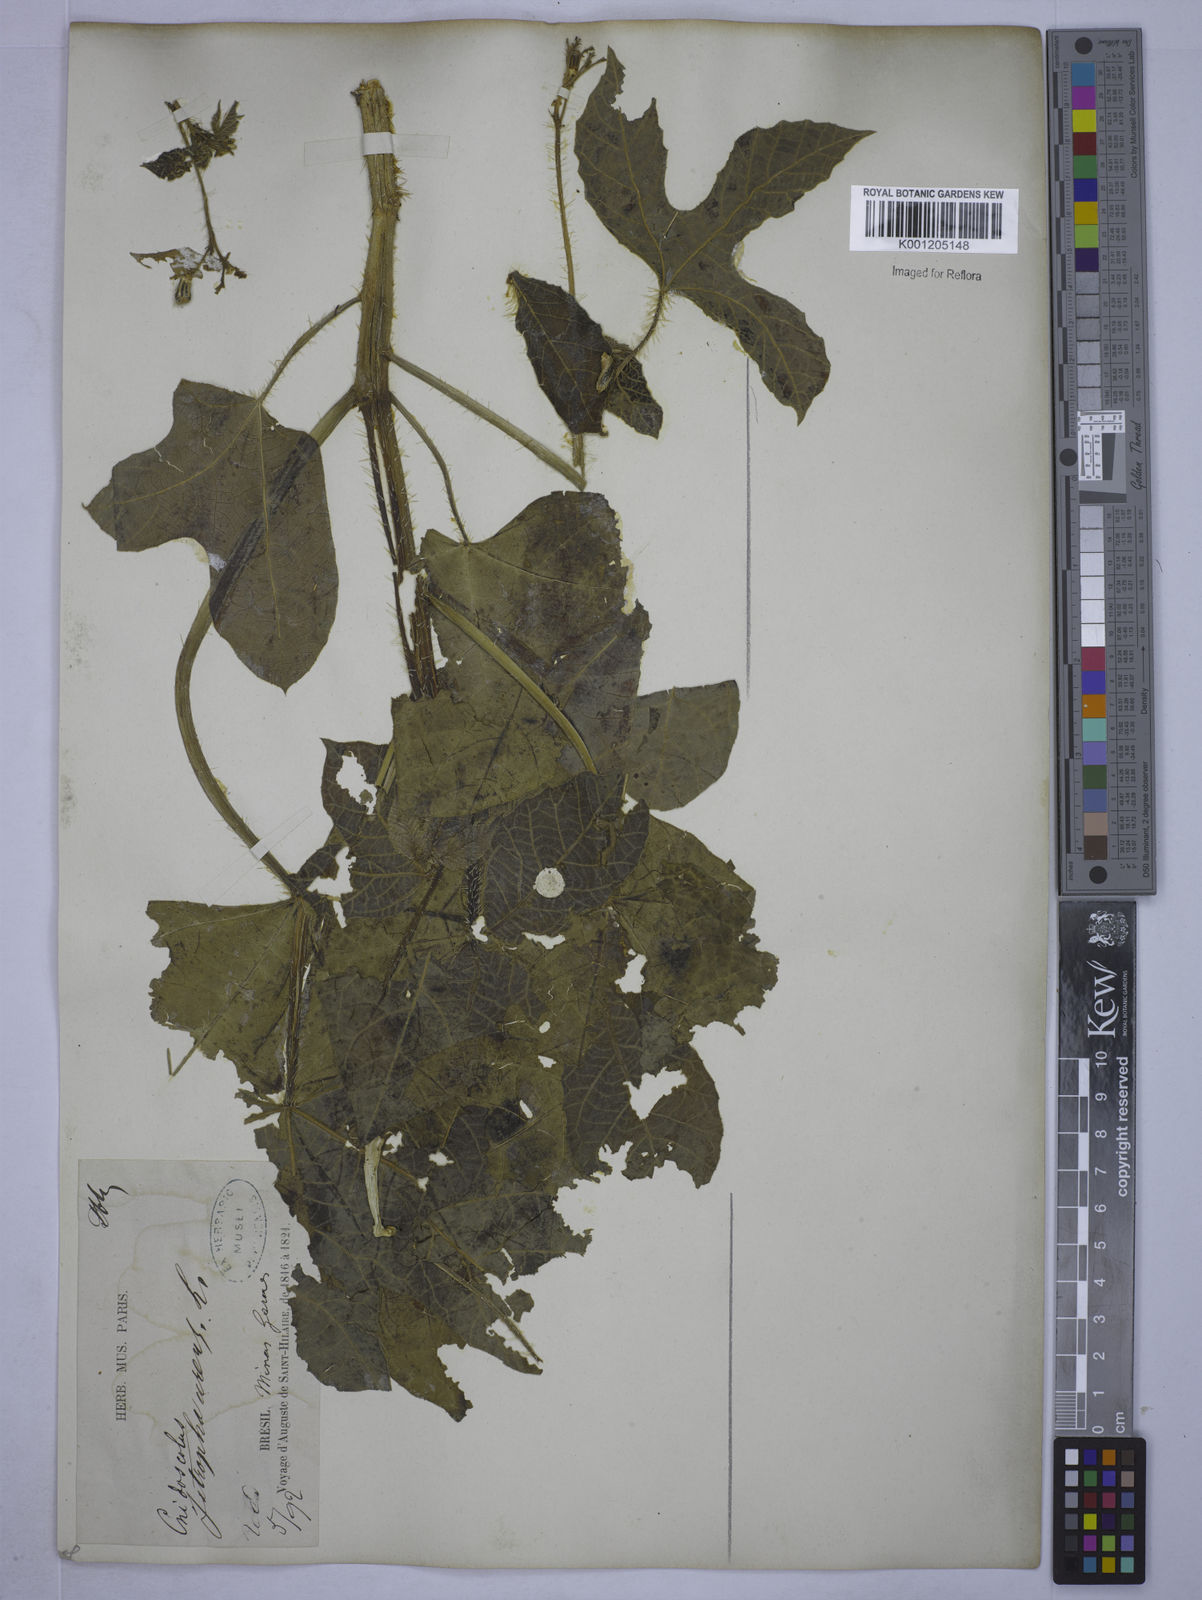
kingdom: Plantae
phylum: Tracheophyta
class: Magnoliopsida
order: Malpighiales
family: Euphorbiaceae
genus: Cnidoscolus
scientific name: Cnidoscolus urens
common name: Bull-nettle
